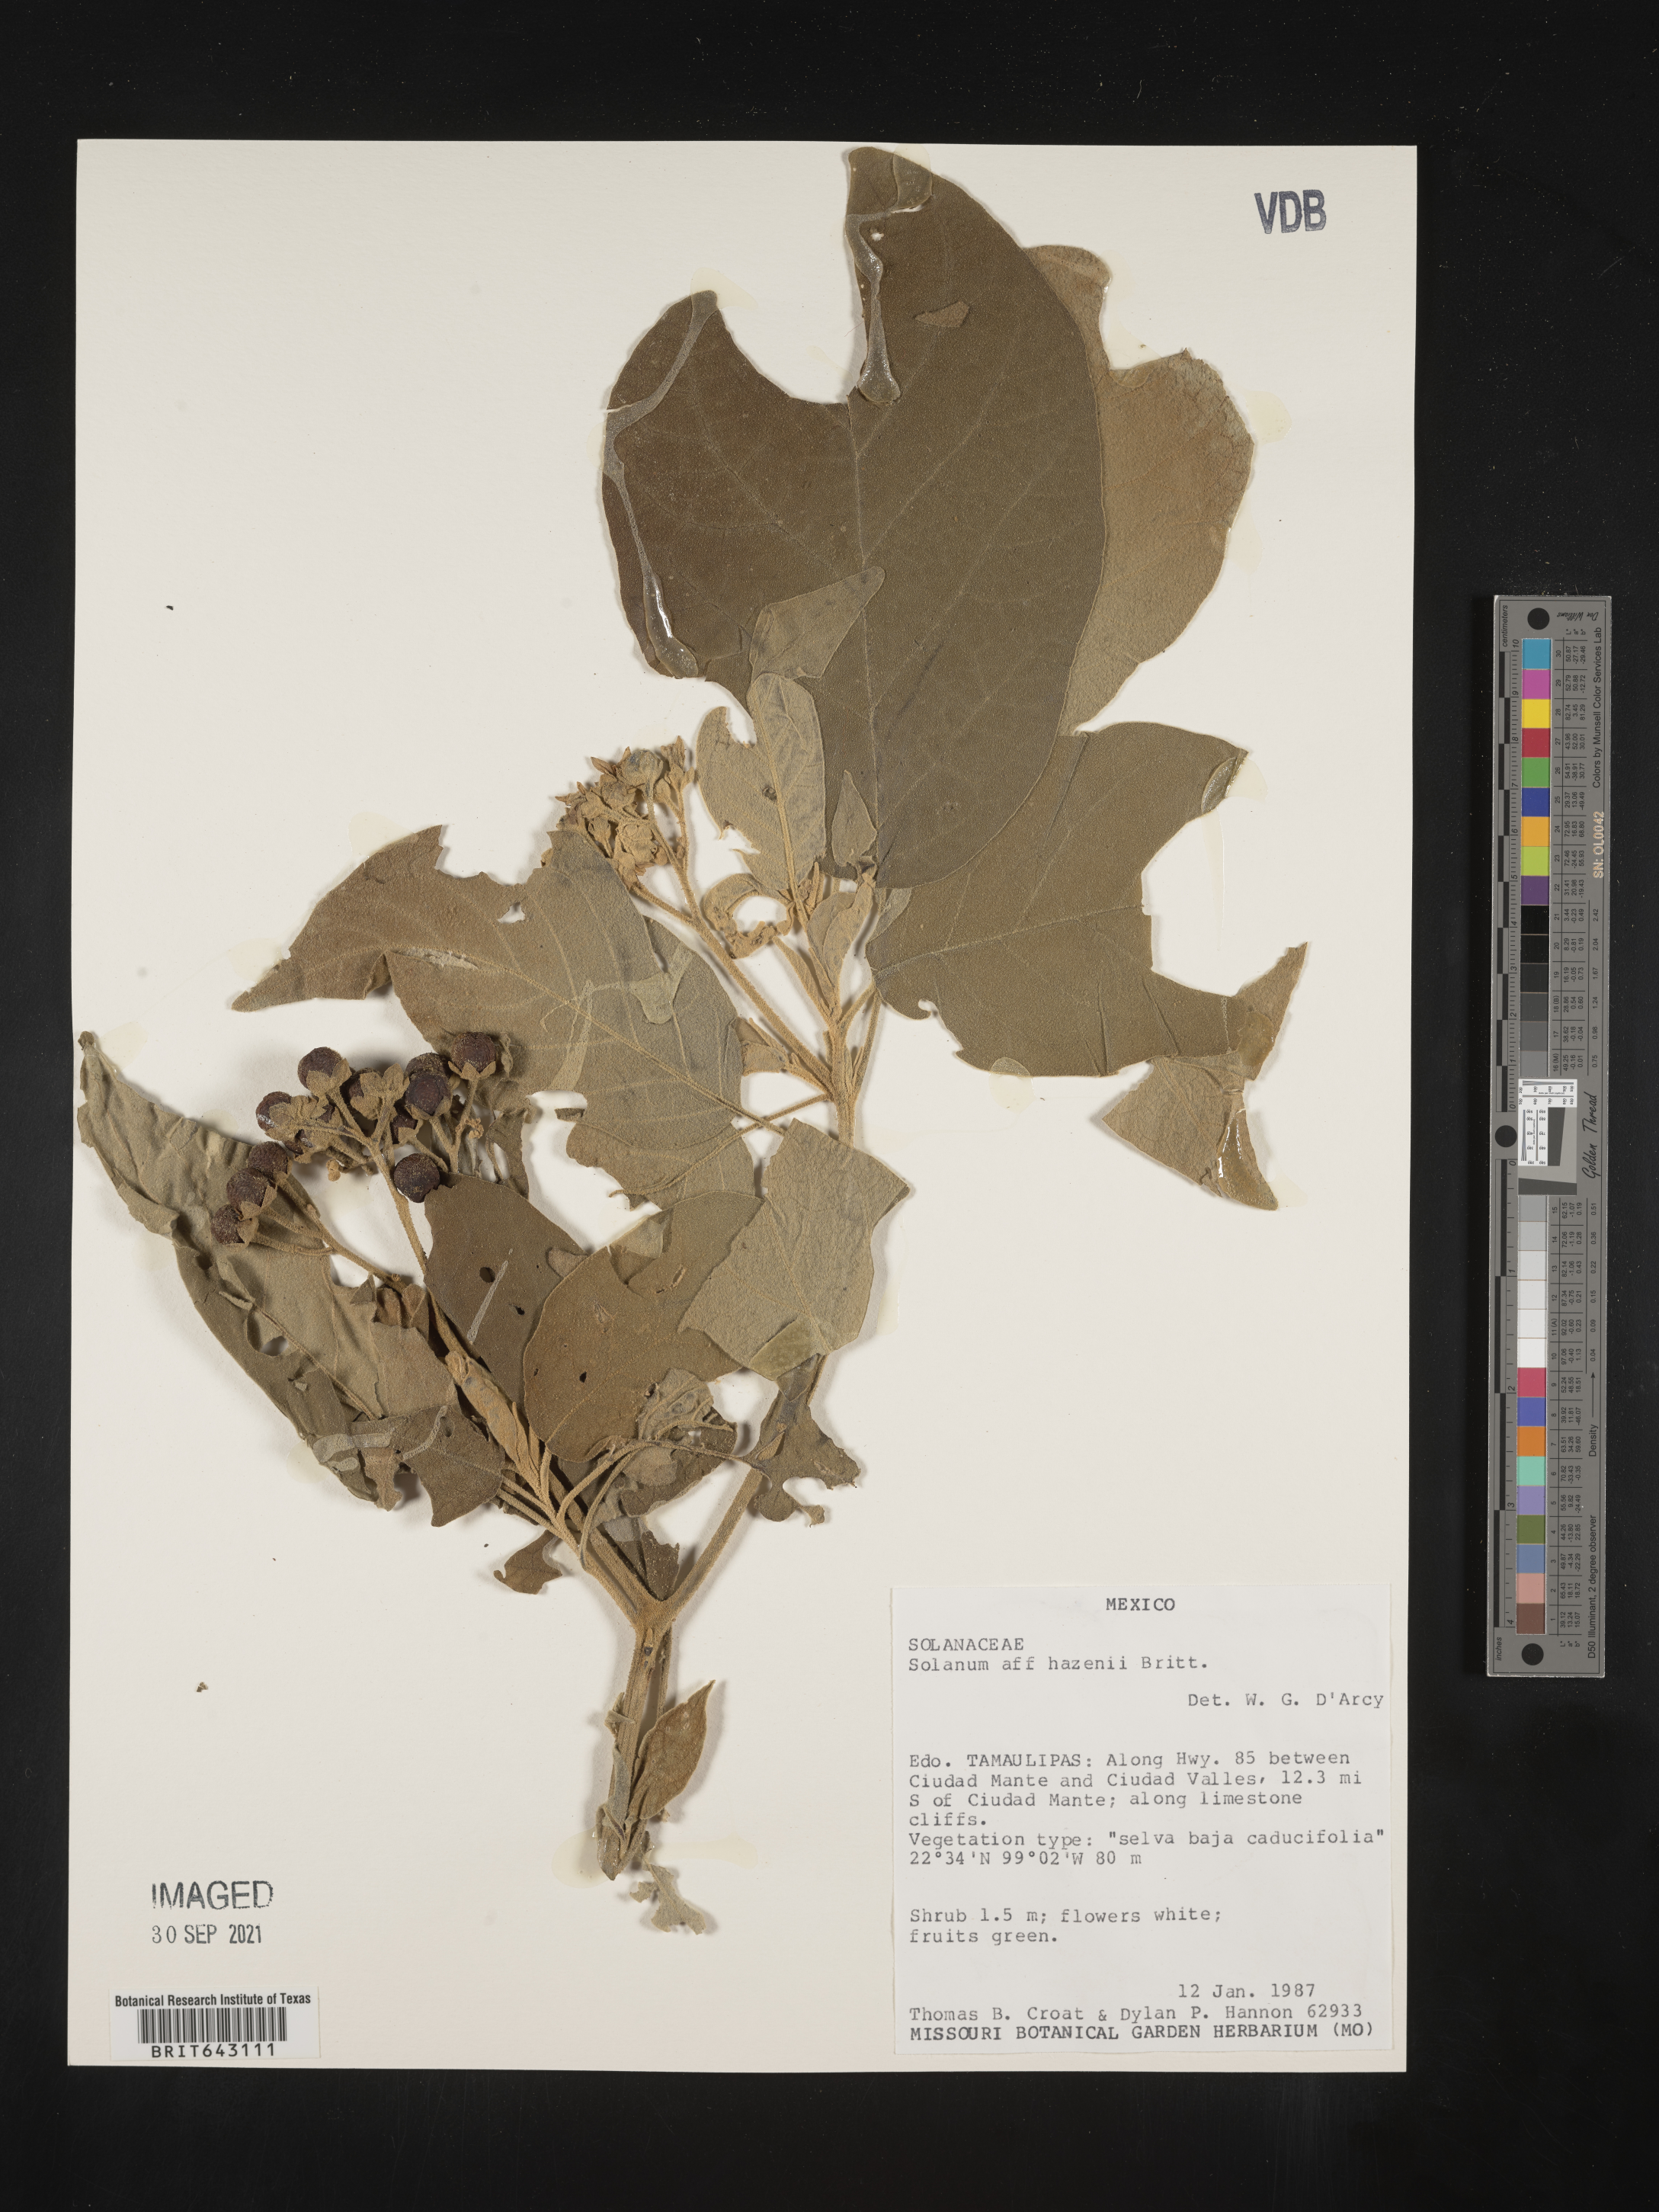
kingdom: Plantae
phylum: Tracheophyta
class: Magnoliopsida
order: Solanales
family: Solanaceae
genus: Solanum
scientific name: Solanum
